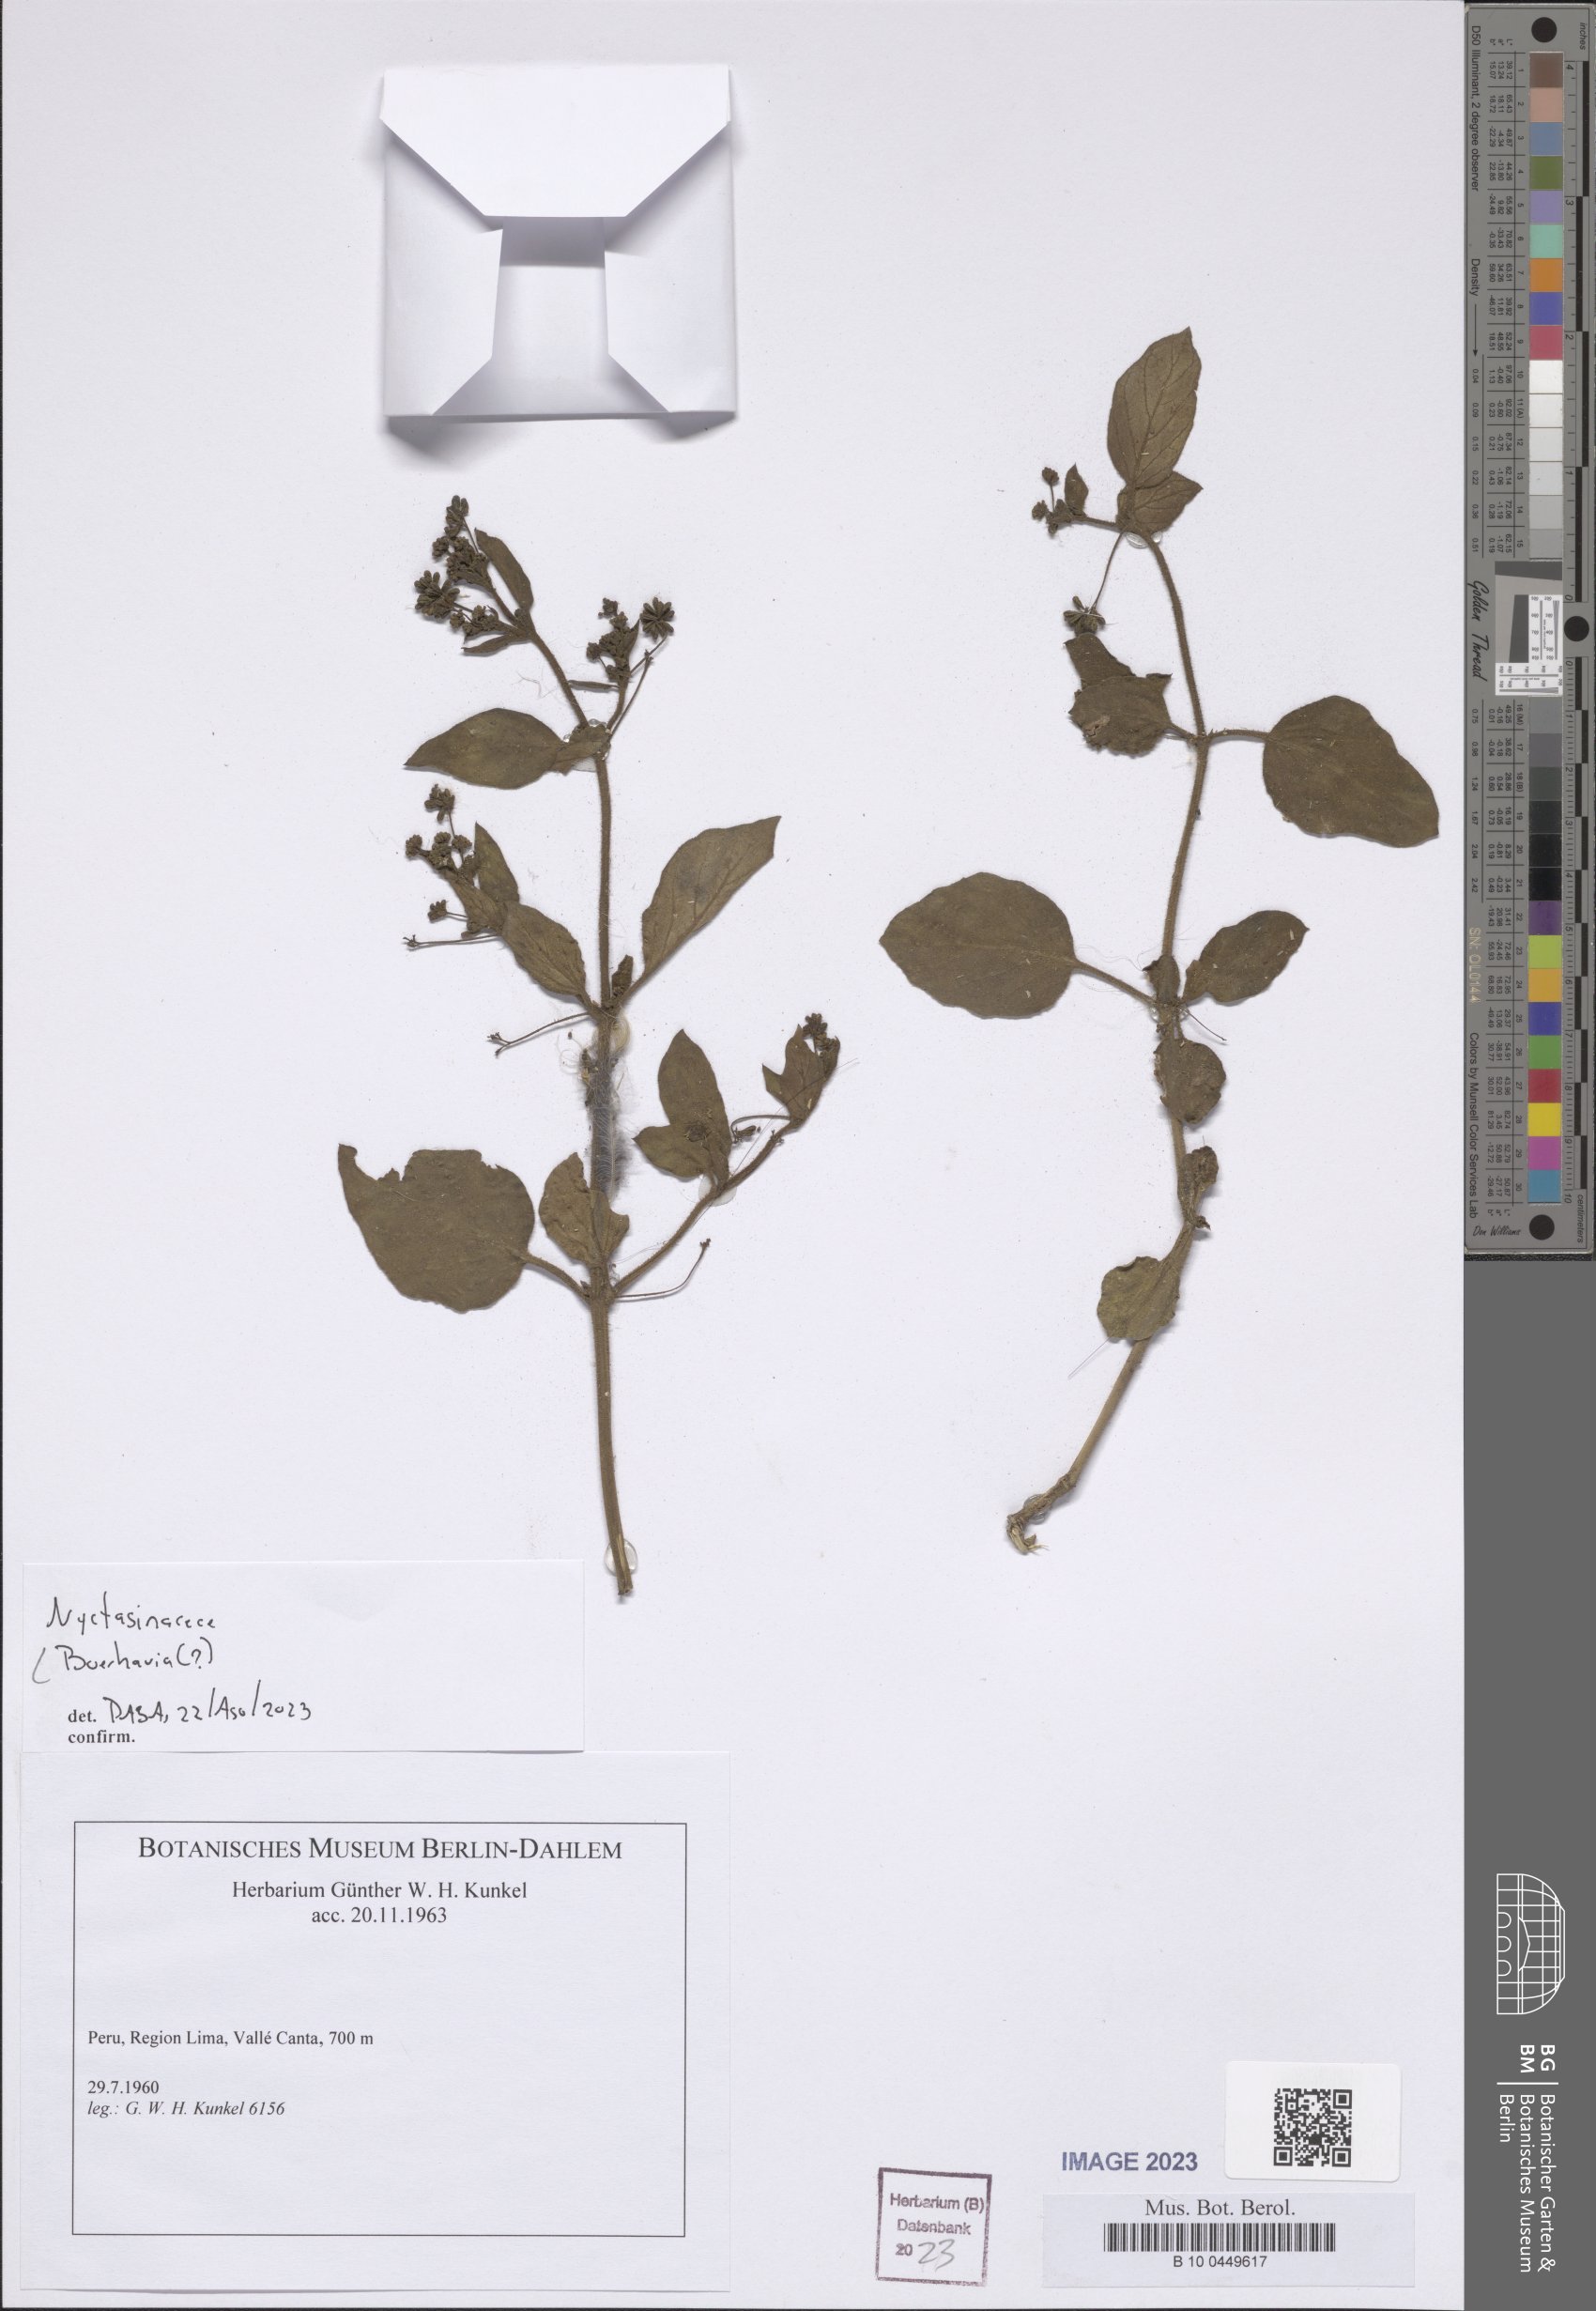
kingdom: Plantae
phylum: Tracheophyta
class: Magnoliopsida
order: Caryophyllales
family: Nyctaginaceae
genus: Boerhavia
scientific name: Boerhavia
